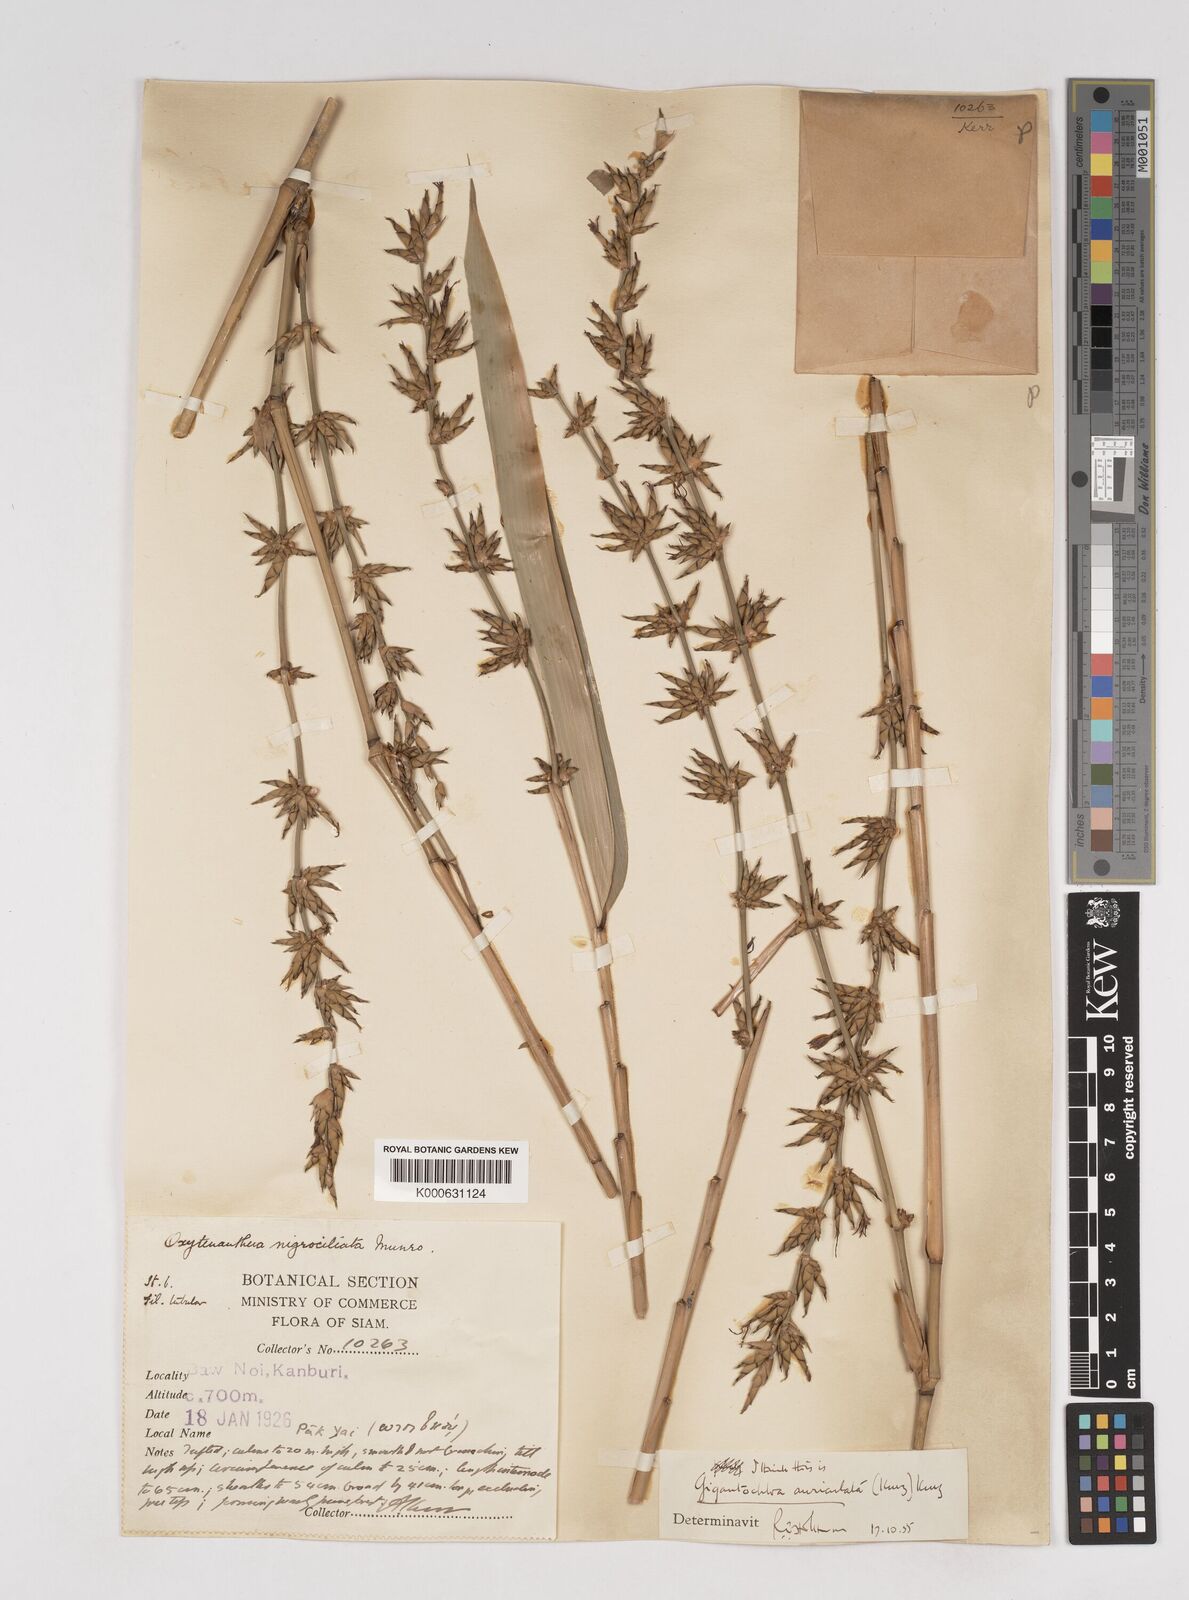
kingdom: Plantae
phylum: Tracheophyta
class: Liliopsida
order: Poales
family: Poaceae
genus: Gigantochloa
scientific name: Gigantochloa nigrociliata
